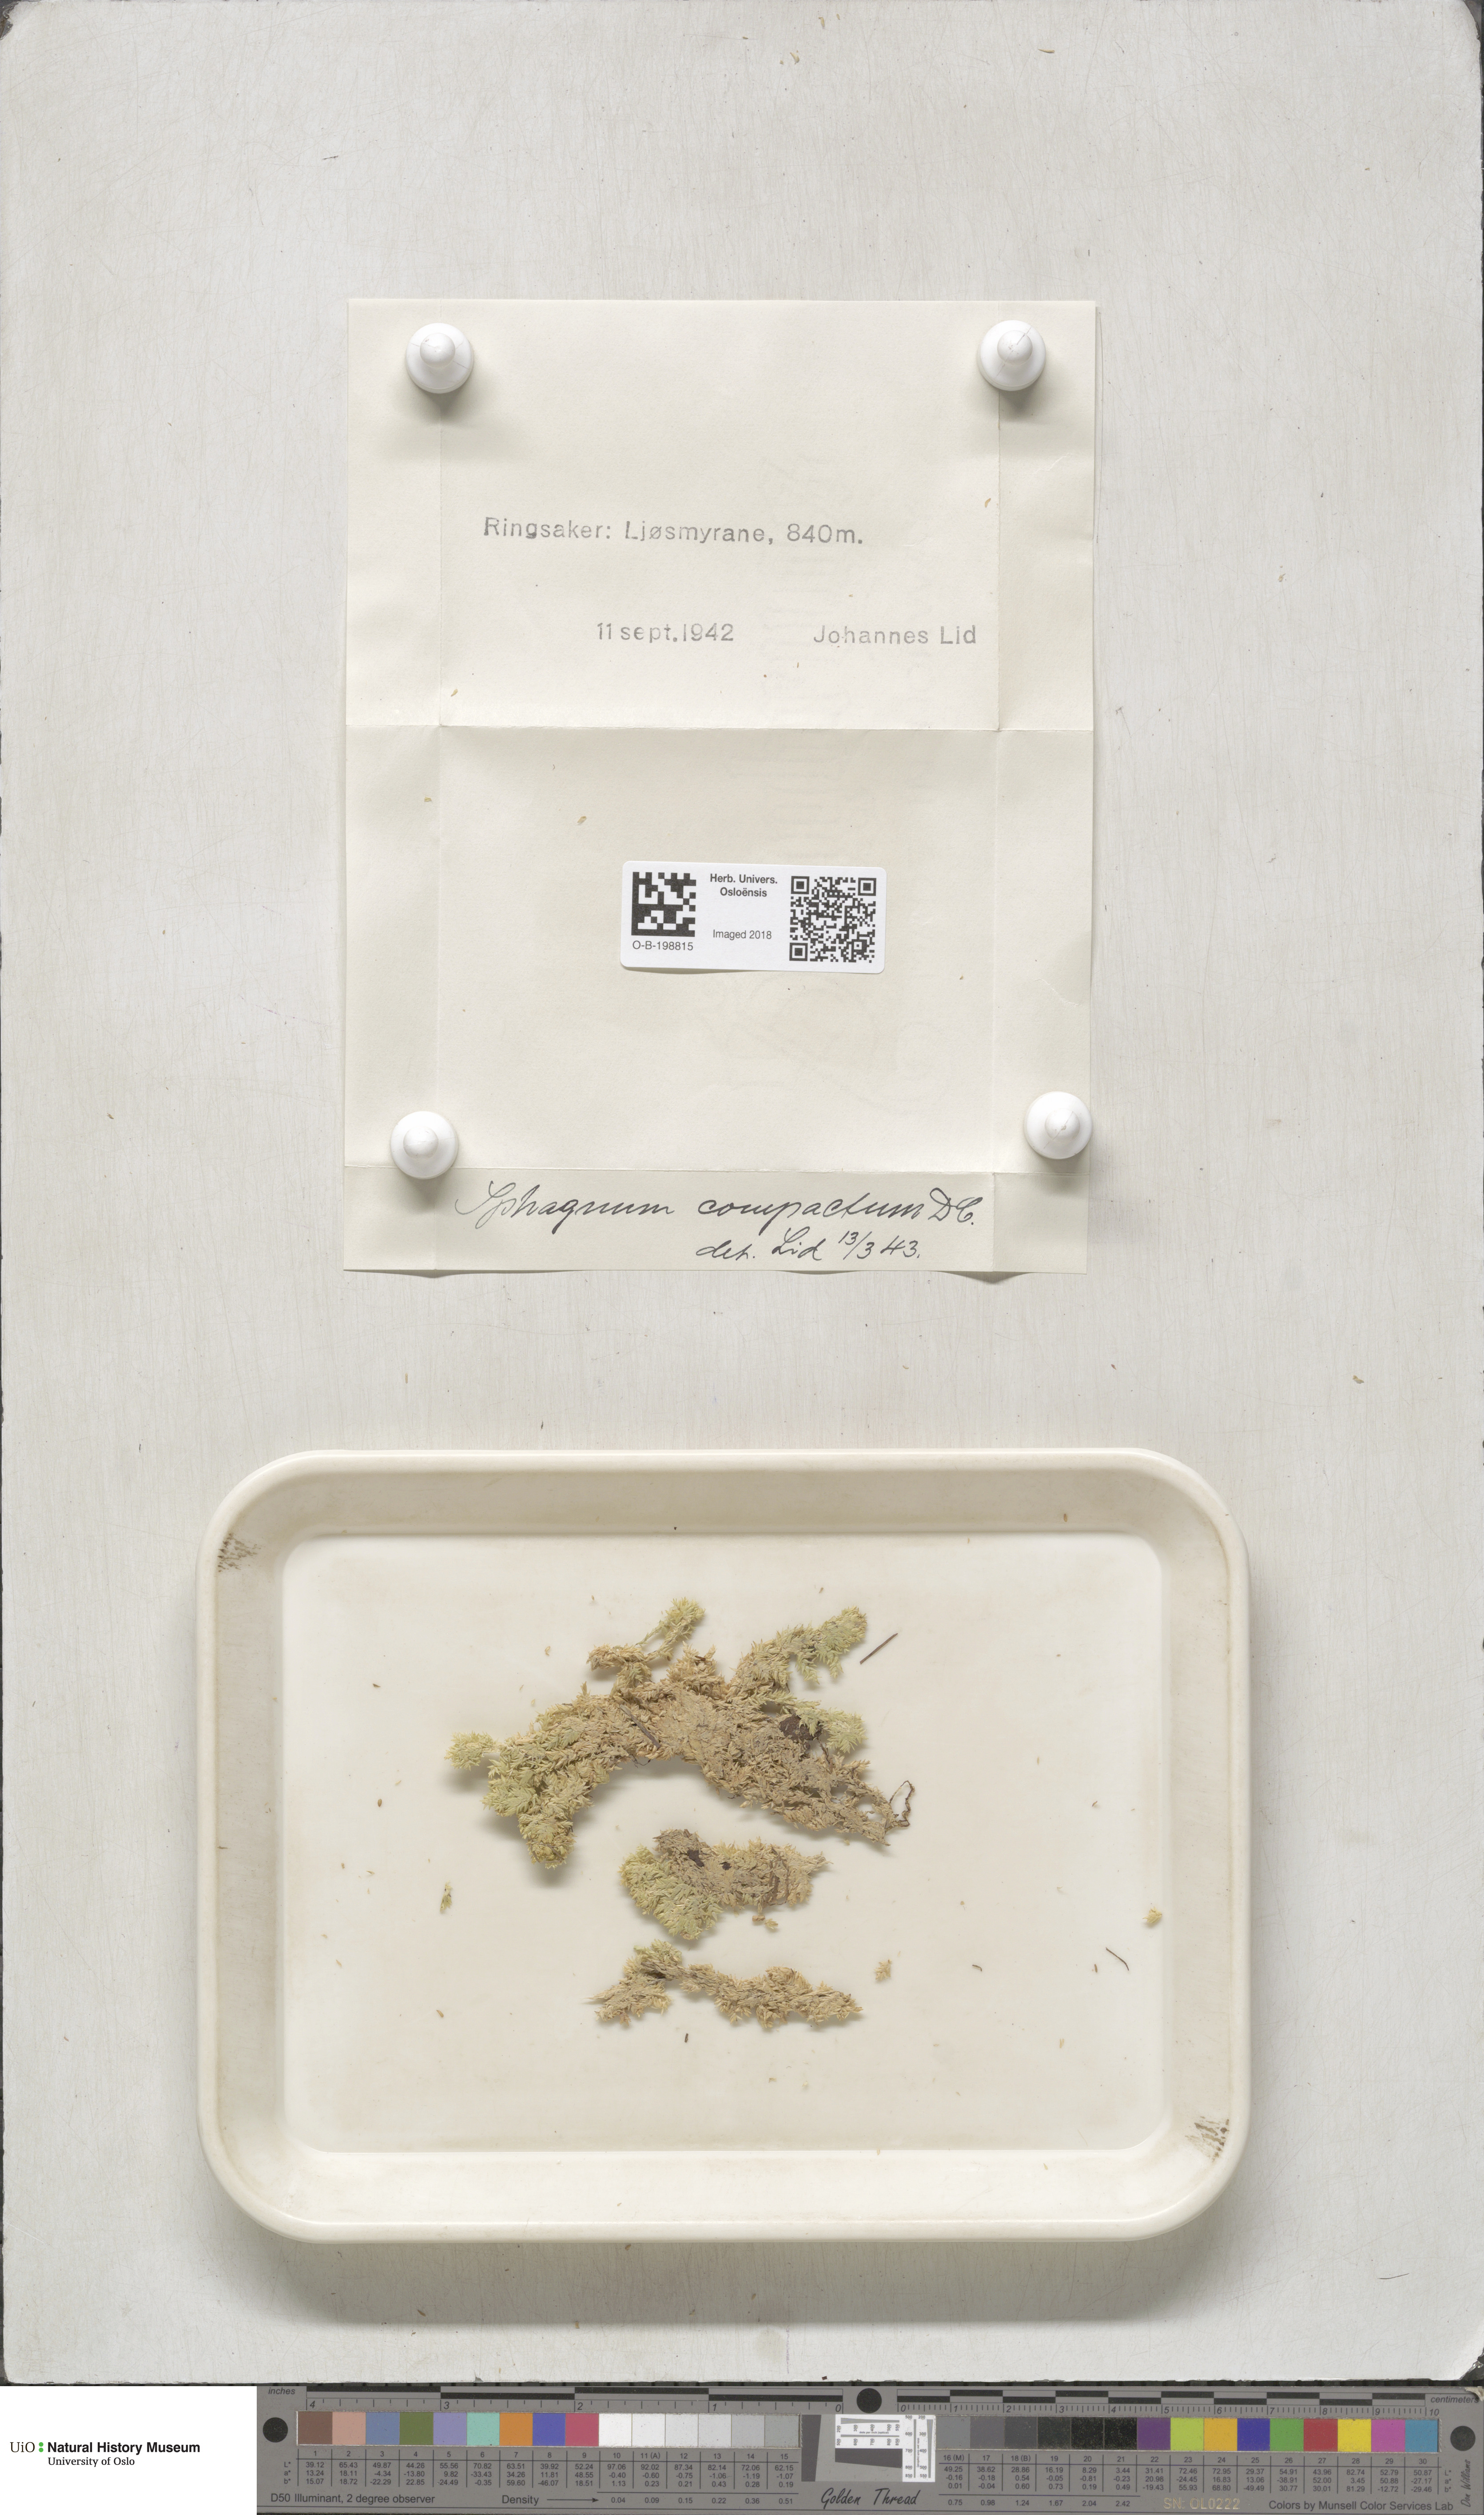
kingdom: Plantae
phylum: Bryophyta
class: Sphagnopsida
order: Sphagnales
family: Sphagnaceae
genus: Sphagnum
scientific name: Sphagnum compactum
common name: Compact peat moss
